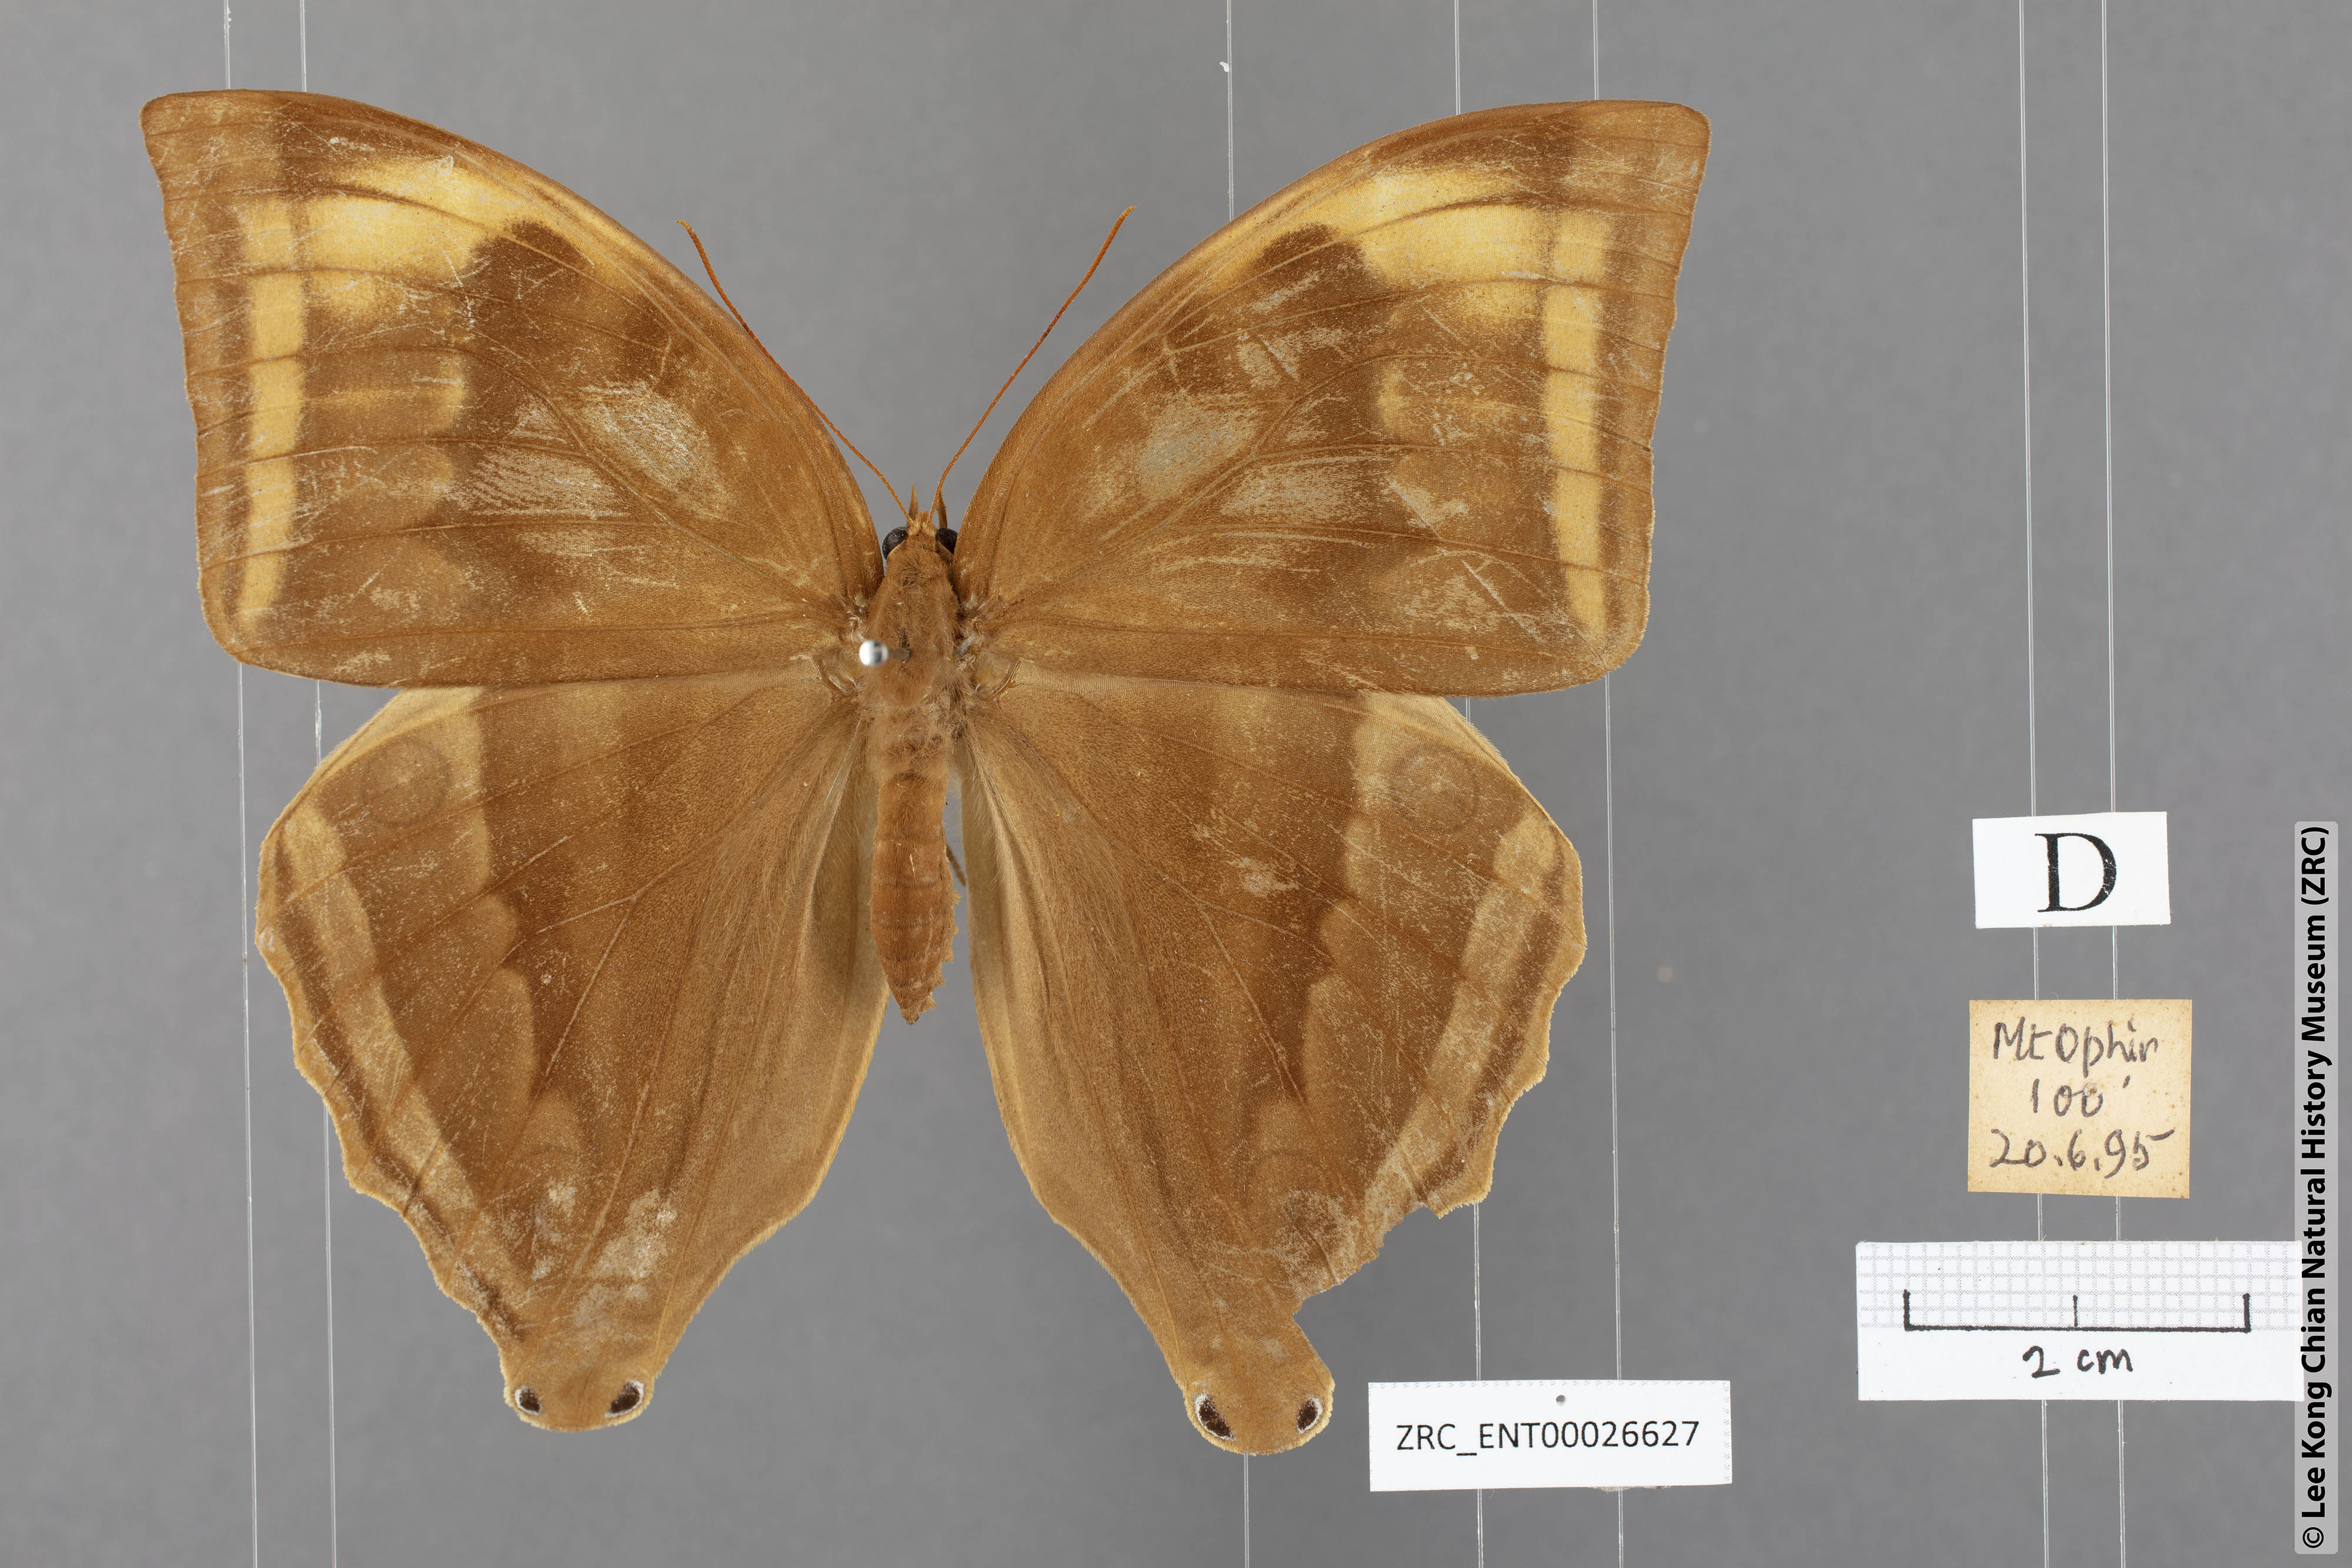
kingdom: Animalia
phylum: Arthropoda
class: Insecta
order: Lepidoptera
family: Nymphalidae
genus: Amathusia
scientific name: Amathusia phidippus
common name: Palm king
